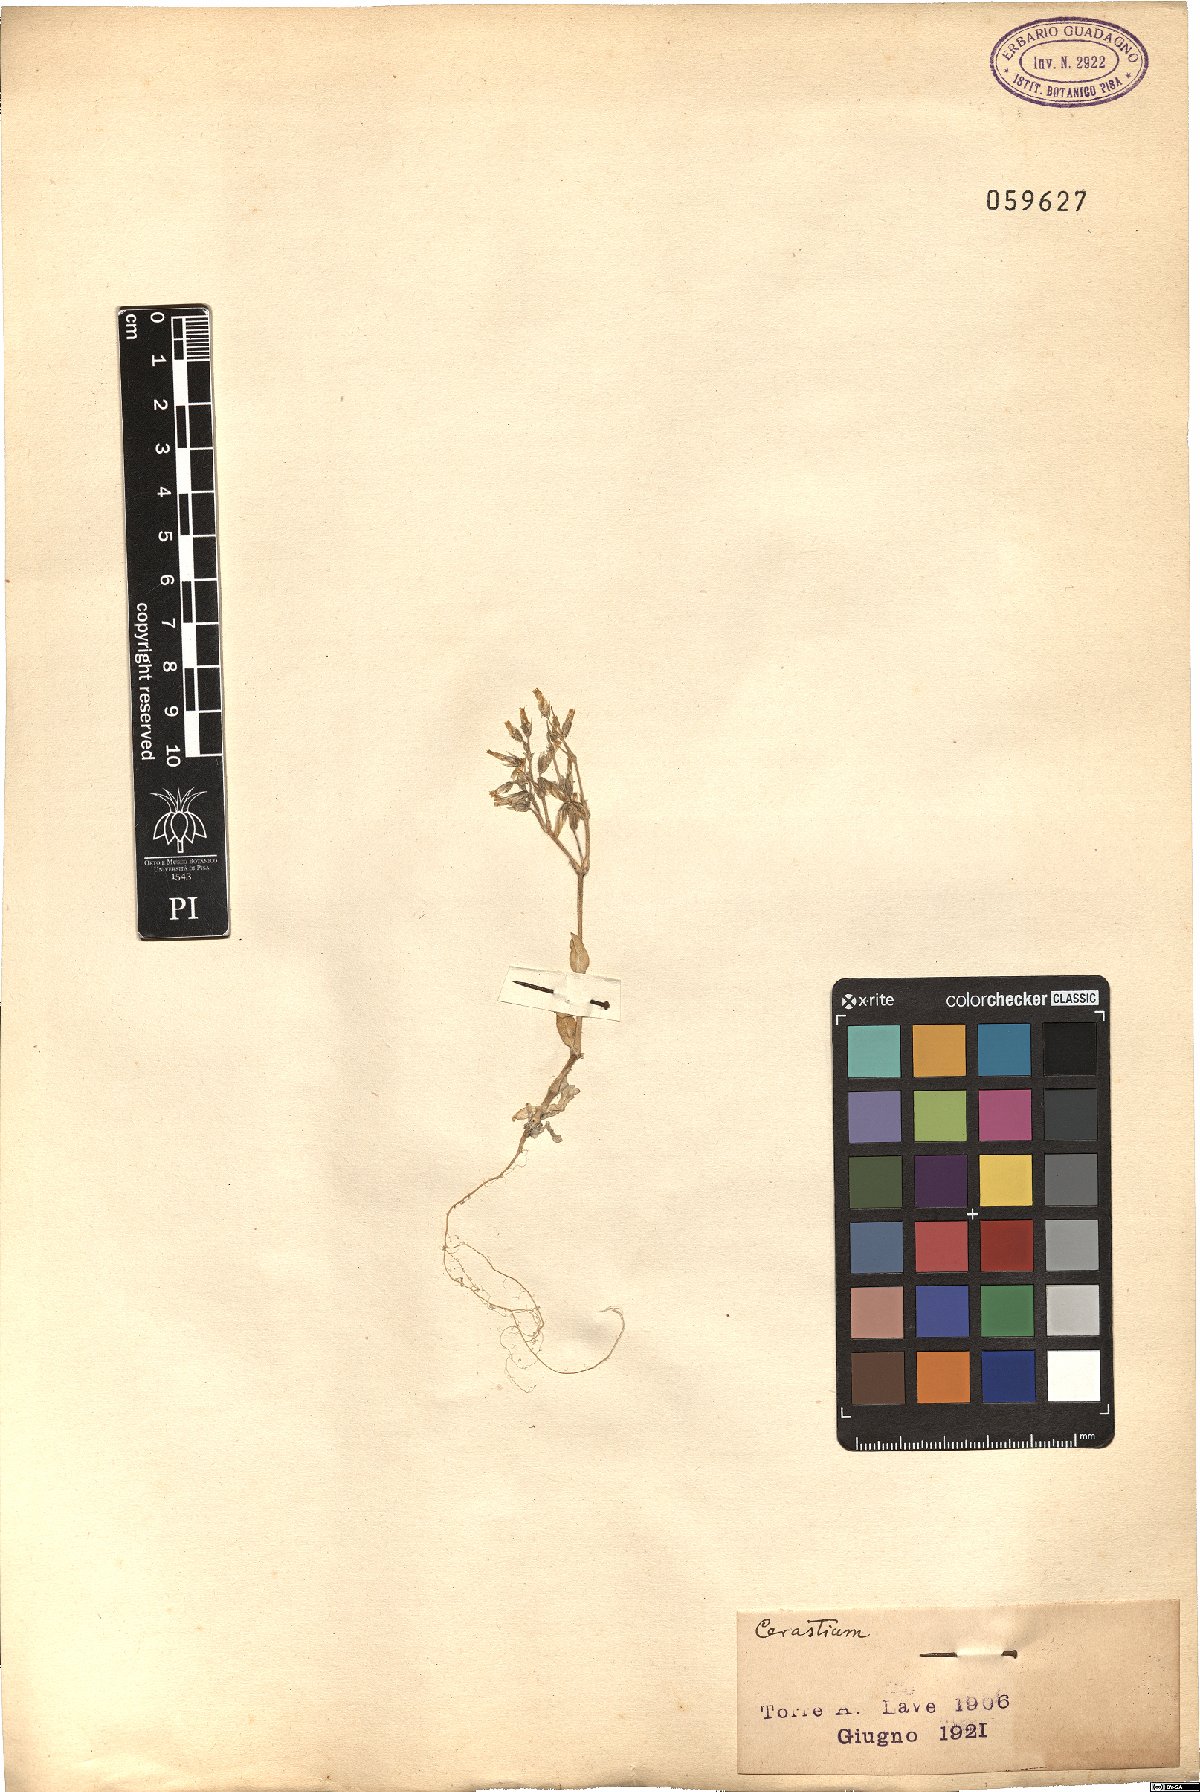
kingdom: Plantae
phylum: Tracheophyta
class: Magnoliopsida
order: Caryophyllales
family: Caryophyllaceae
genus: Cerastium
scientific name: Cerastium
